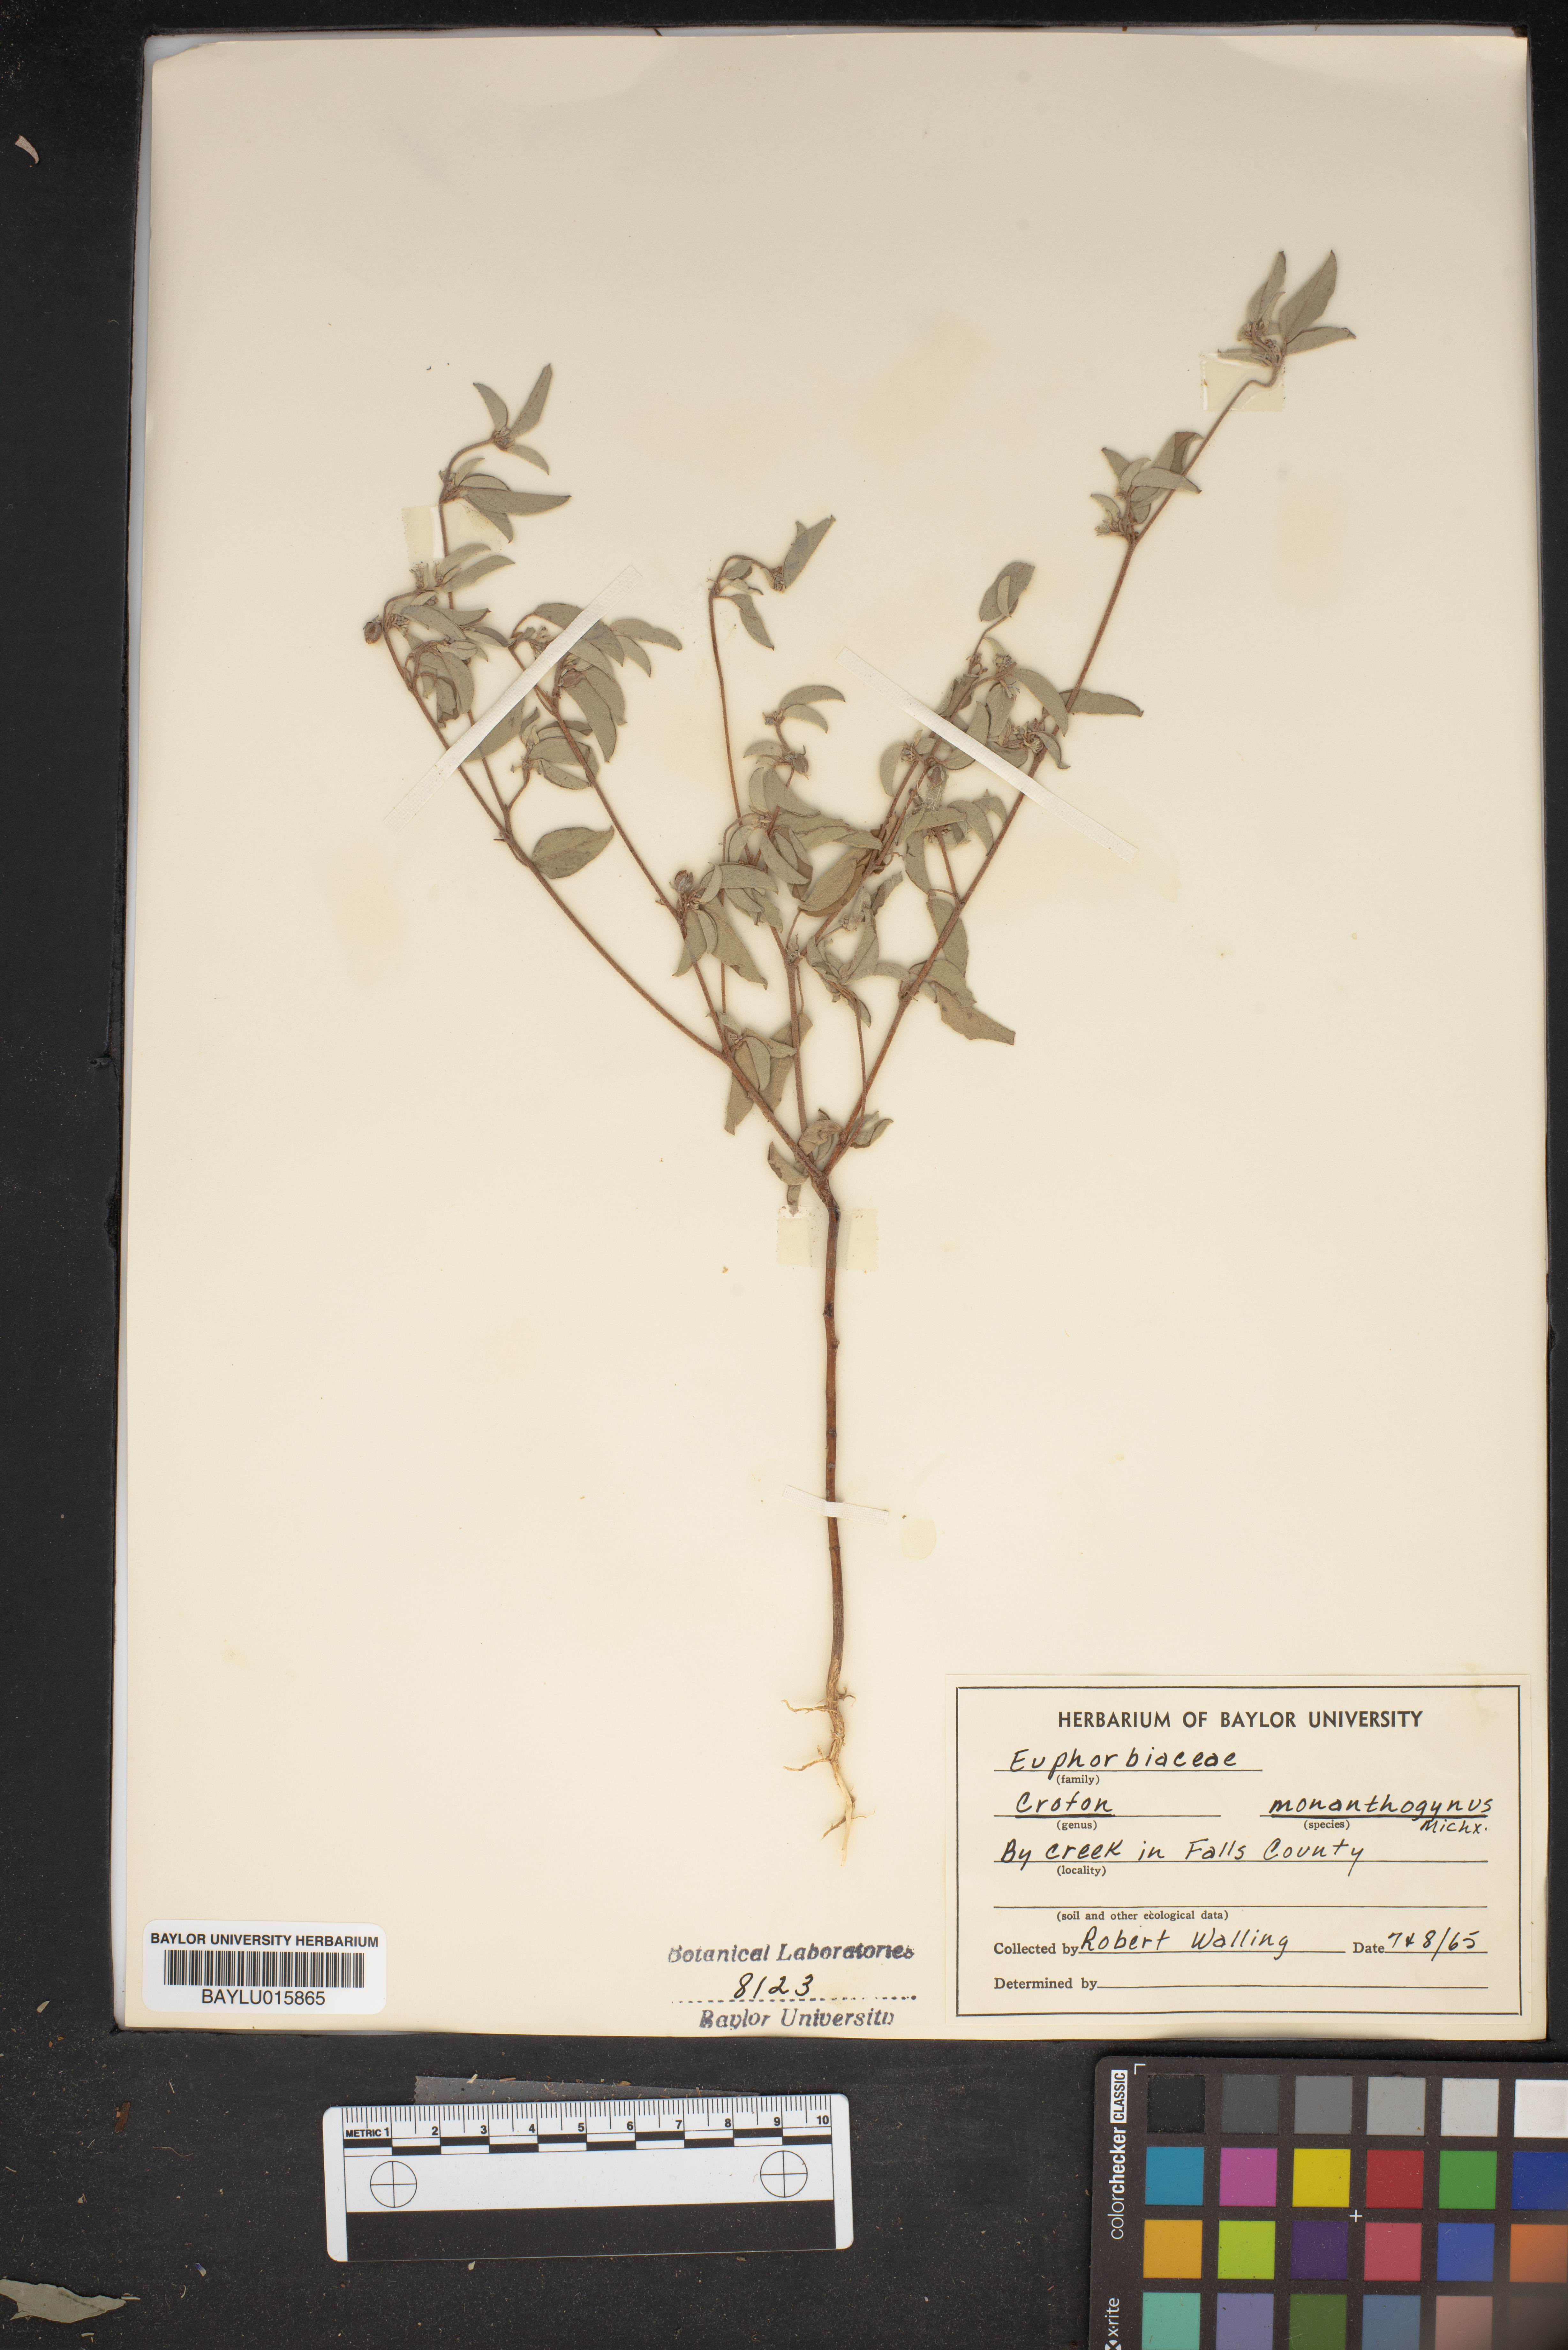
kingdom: Plantae
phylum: Tracheophyta
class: Magnoliopsida
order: Malpighiales
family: Euphorbiaceae
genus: Croton
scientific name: Croton monanthogynus
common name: One-seed croton
